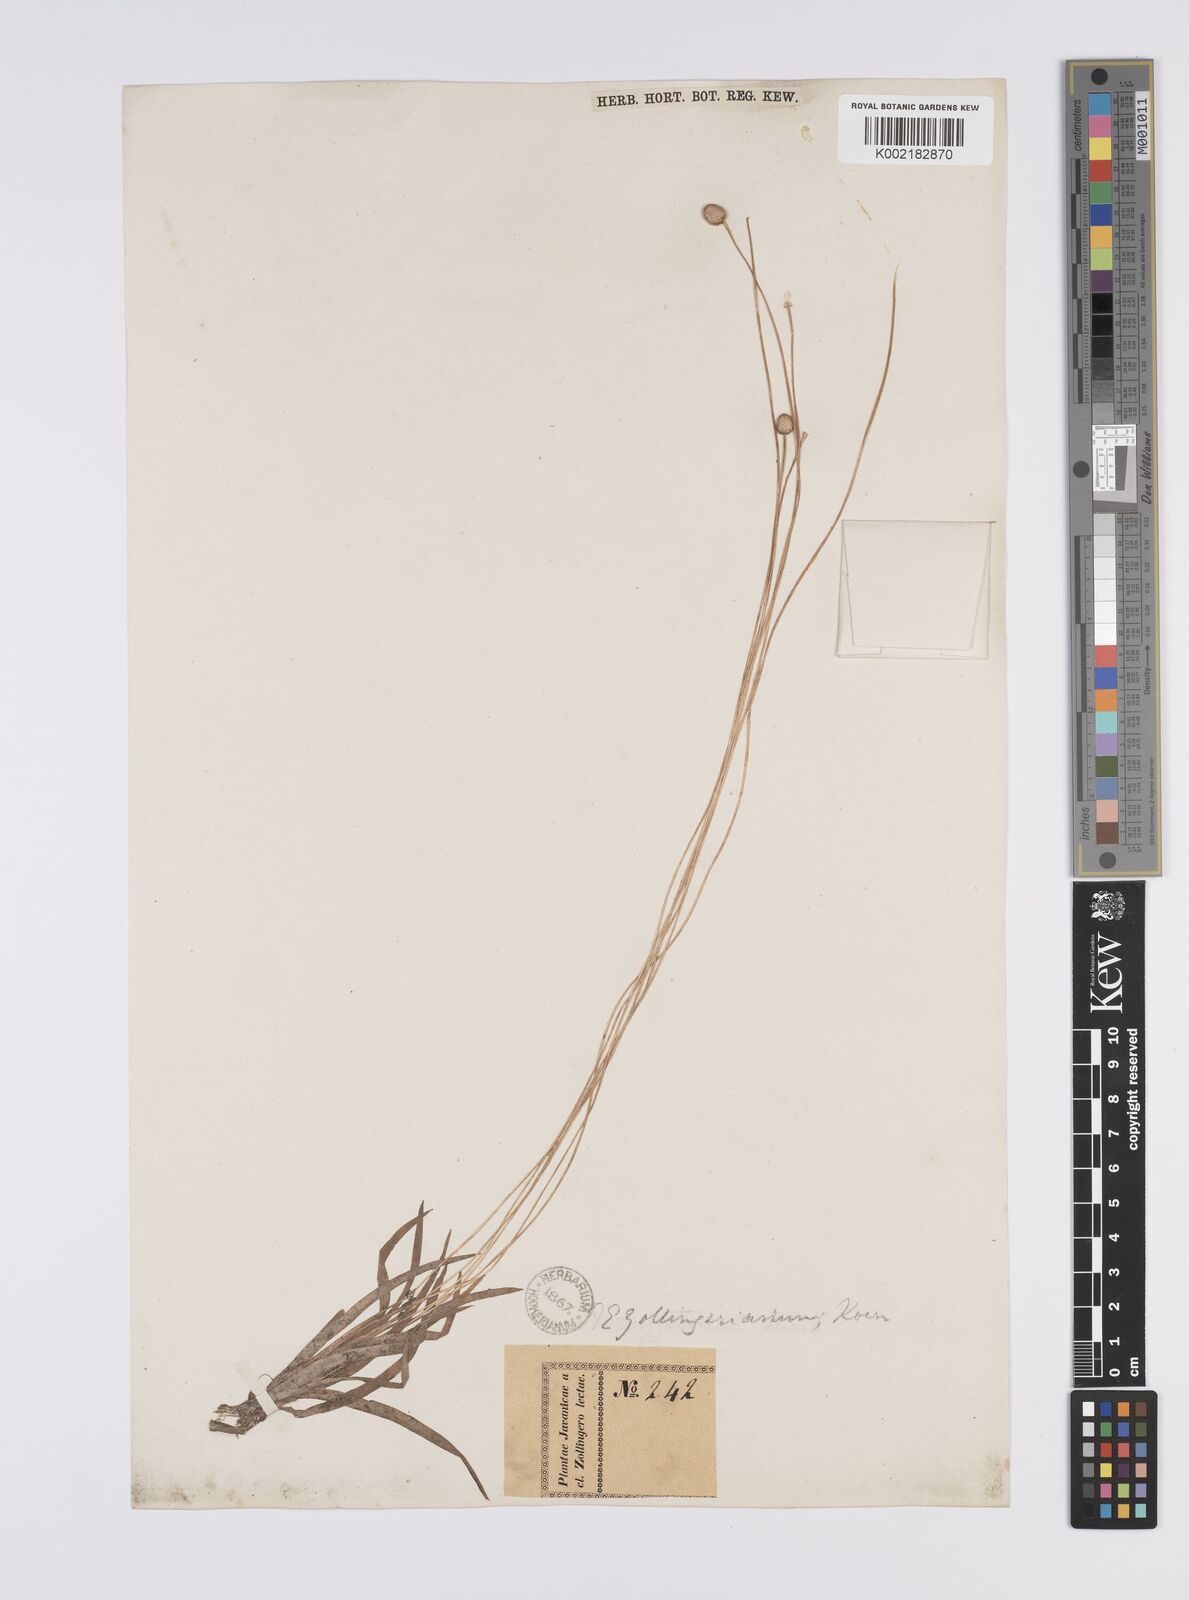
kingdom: Plantae
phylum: Tracheophyta
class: Liliopsida
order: Poales
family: Eriocaulaceae
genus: Eriocaulon
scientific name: Eriocaulon zollingerianum
